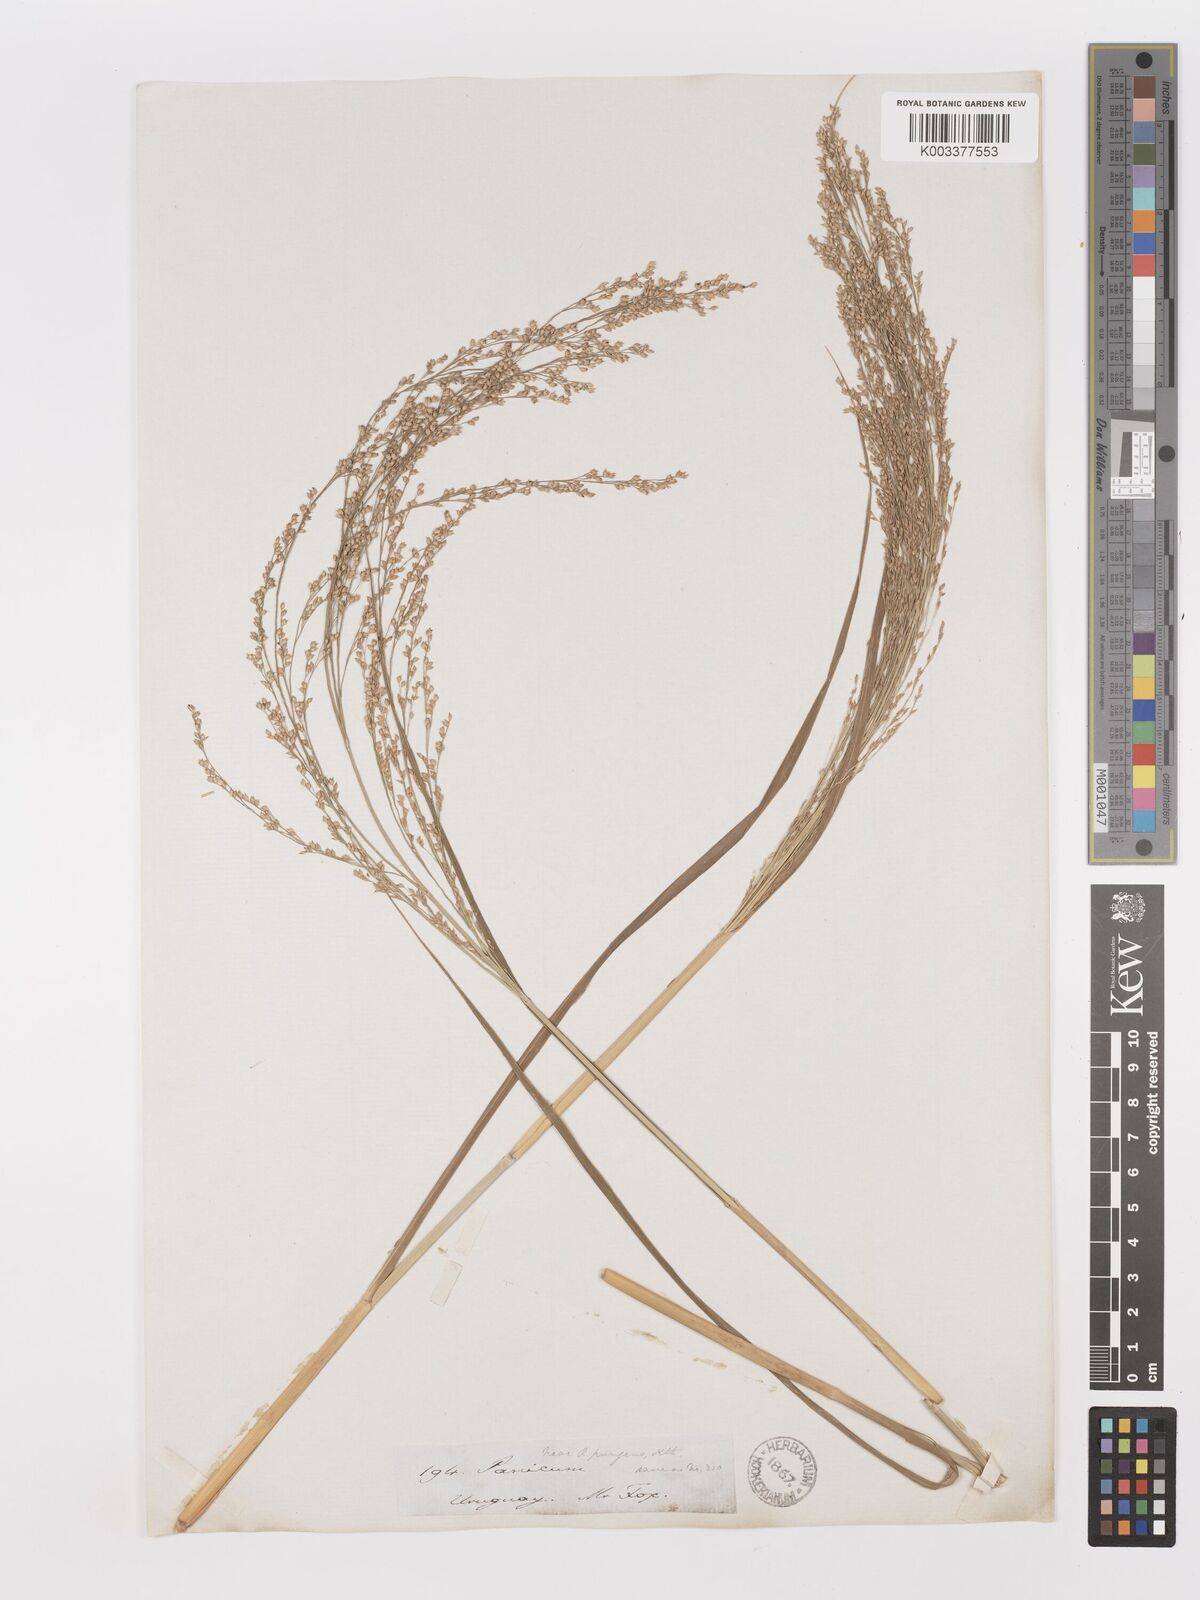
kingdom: Plantae
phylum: Tracheophyta
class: Liliopsida
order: Poales
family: Poaceae
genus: Panicum
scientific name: Panicum tricholaenoides
